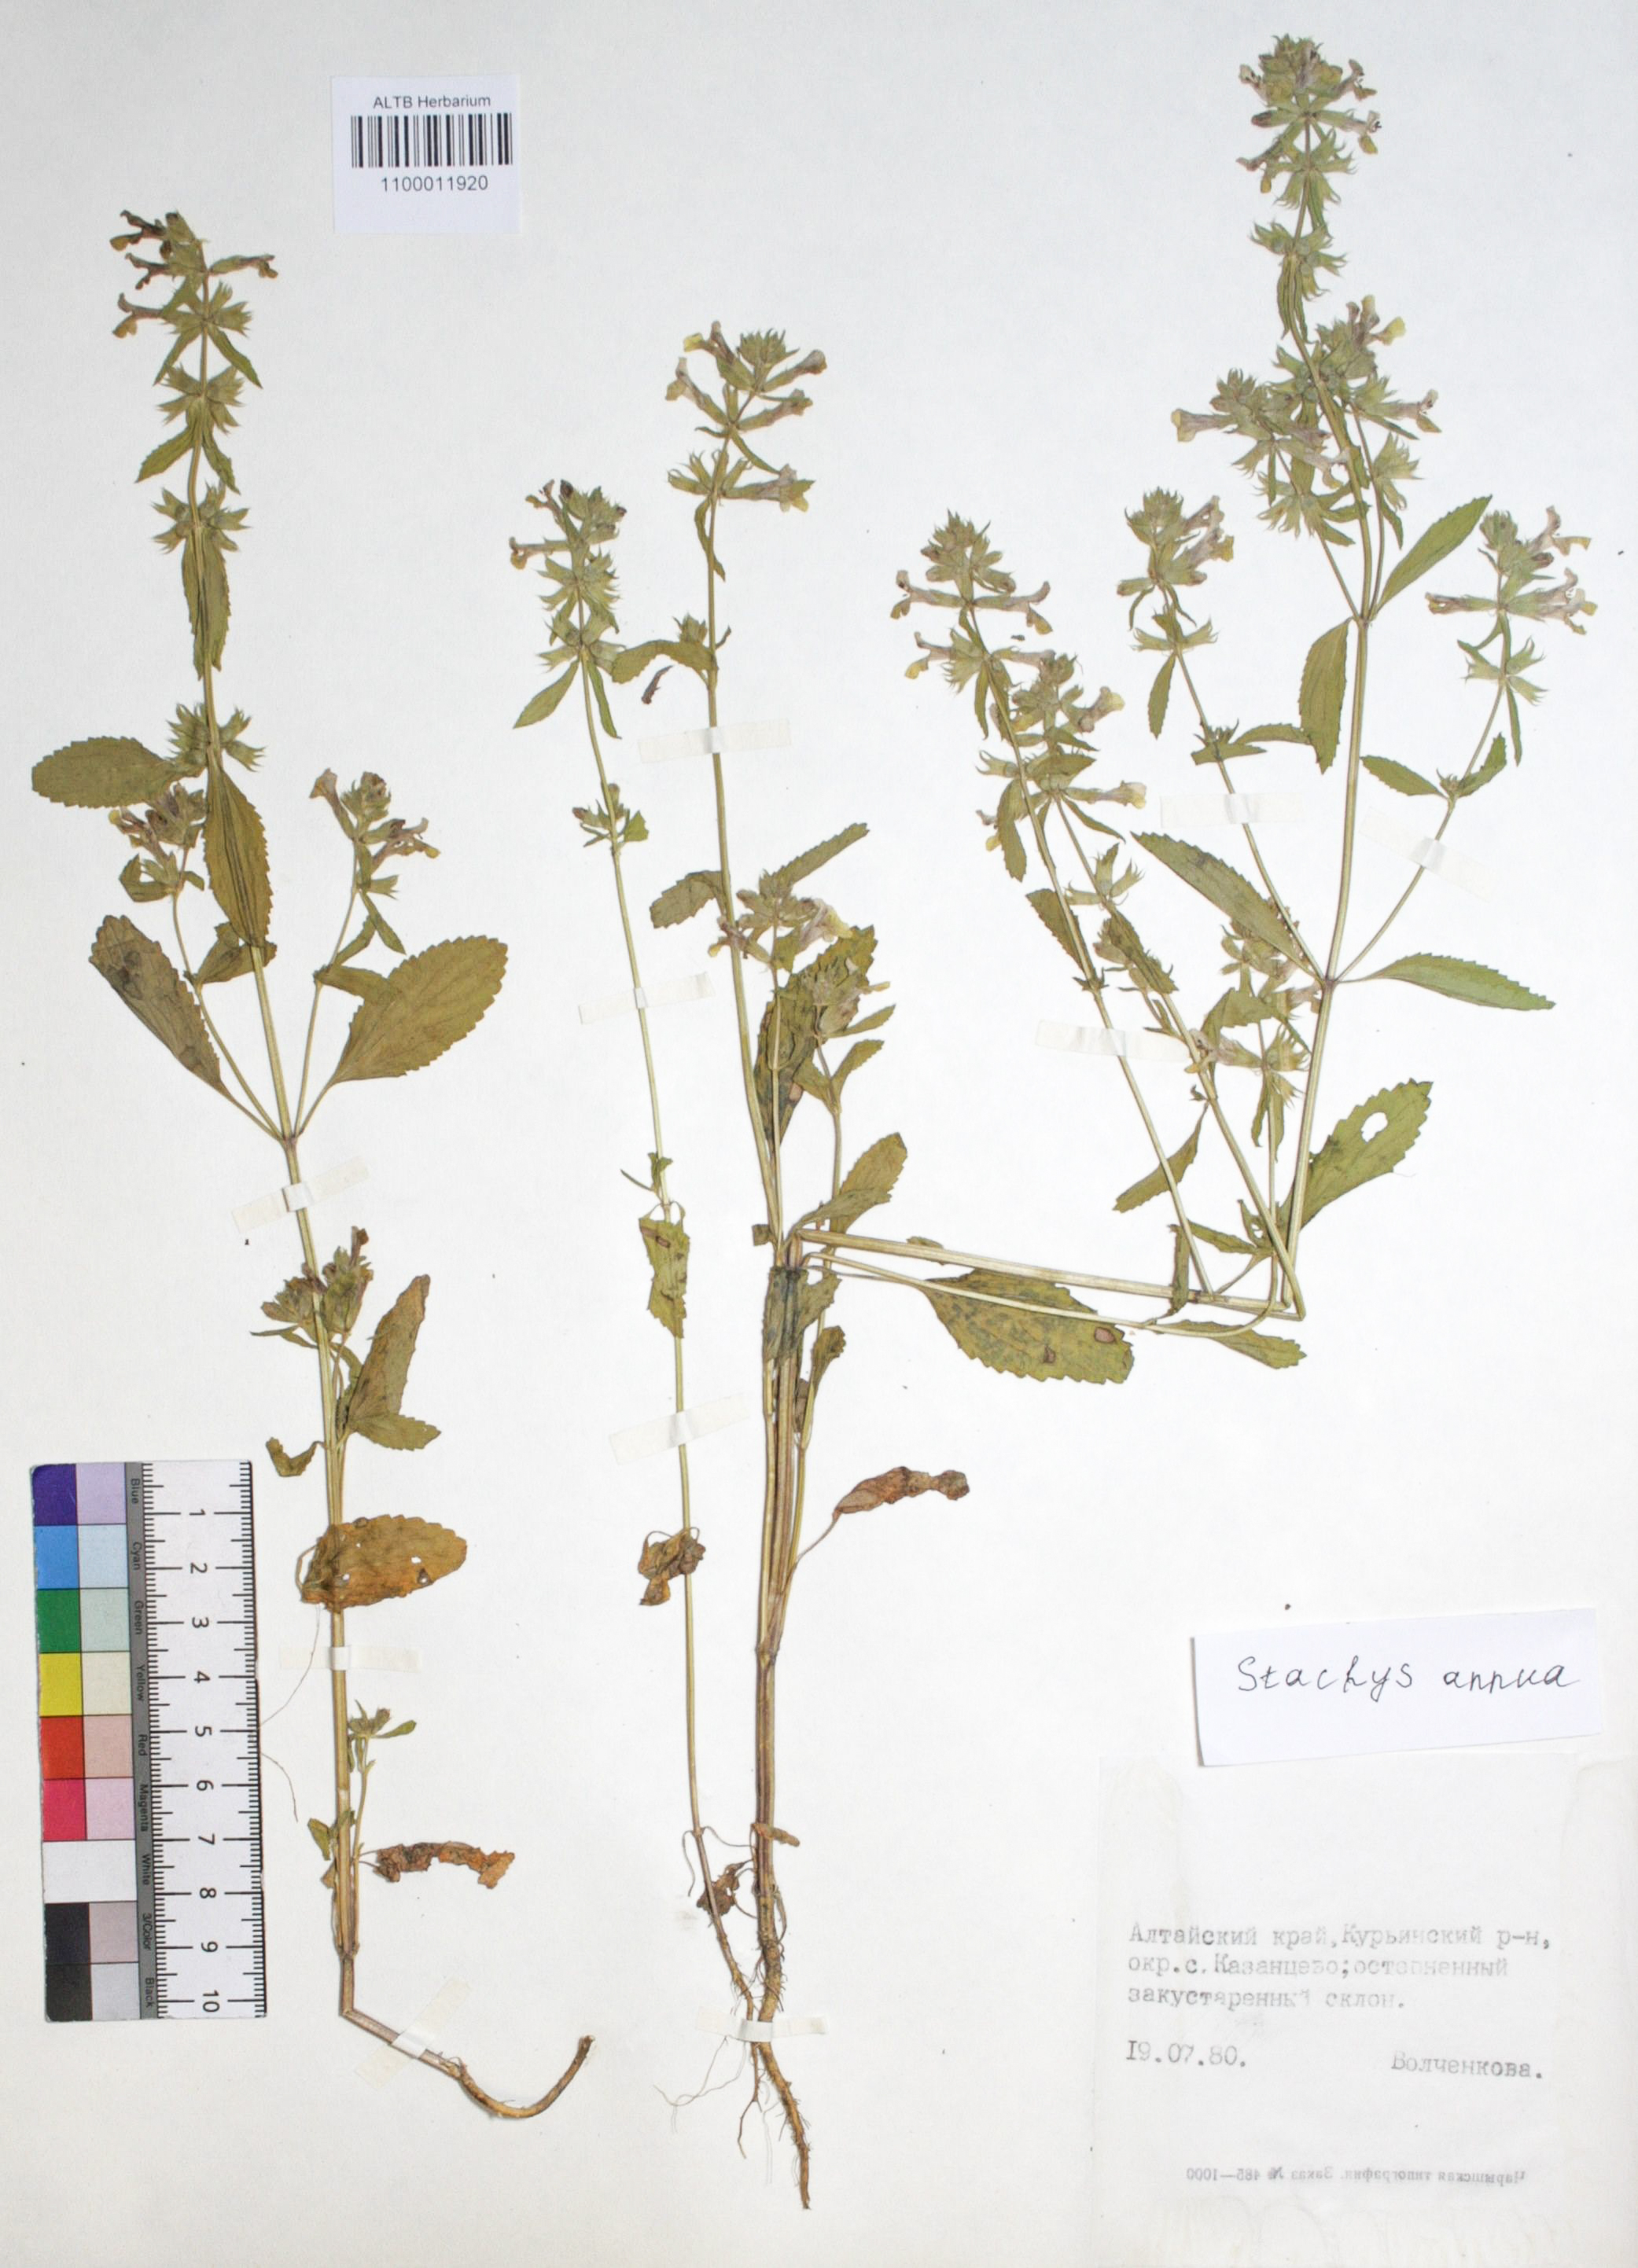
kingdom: Plantae
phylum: Tracheophyta
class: Magnoliopsida
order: Lamiales
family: Lamiaceae
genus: Stachys
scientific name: Stachys annua
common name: Annual yellow-woundwort
